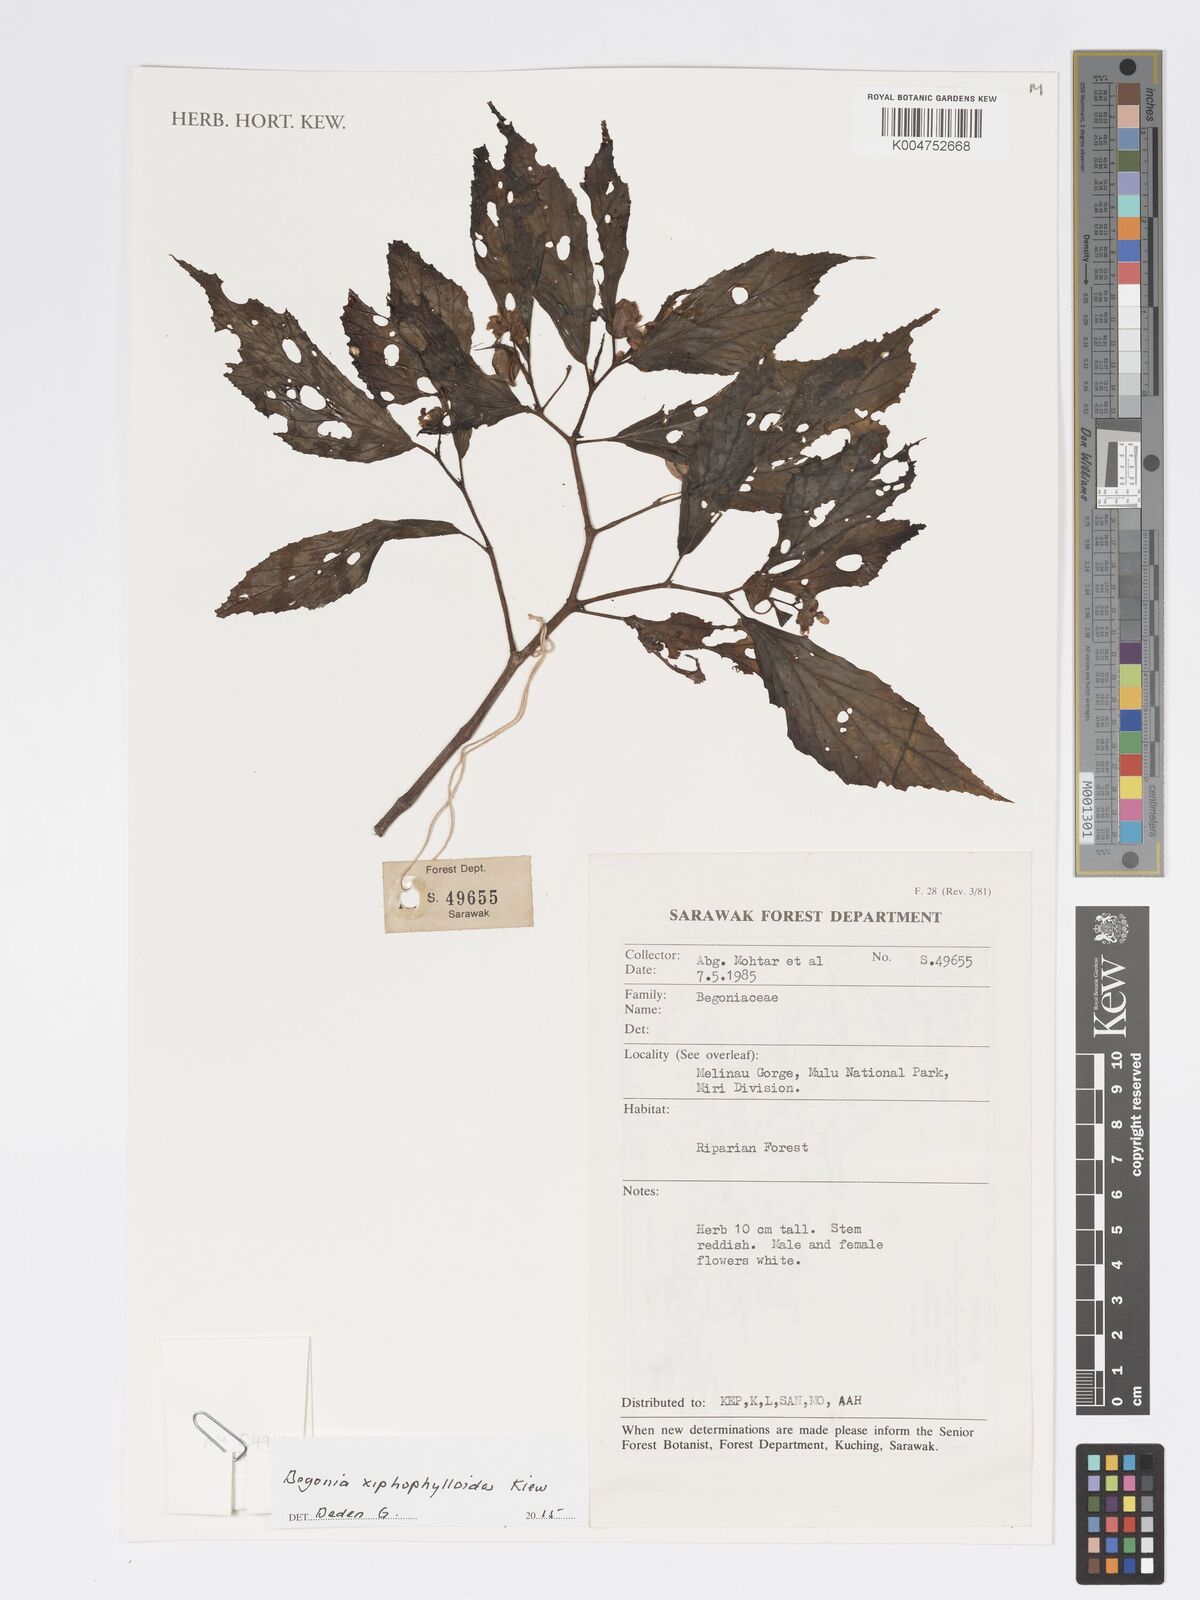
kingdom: Plantae
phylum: Tracheophyta
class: Magnoliopsida
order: Cucurbitales
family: Begoniaceae
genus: Begonia
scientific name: Begonia xiphophylloides
